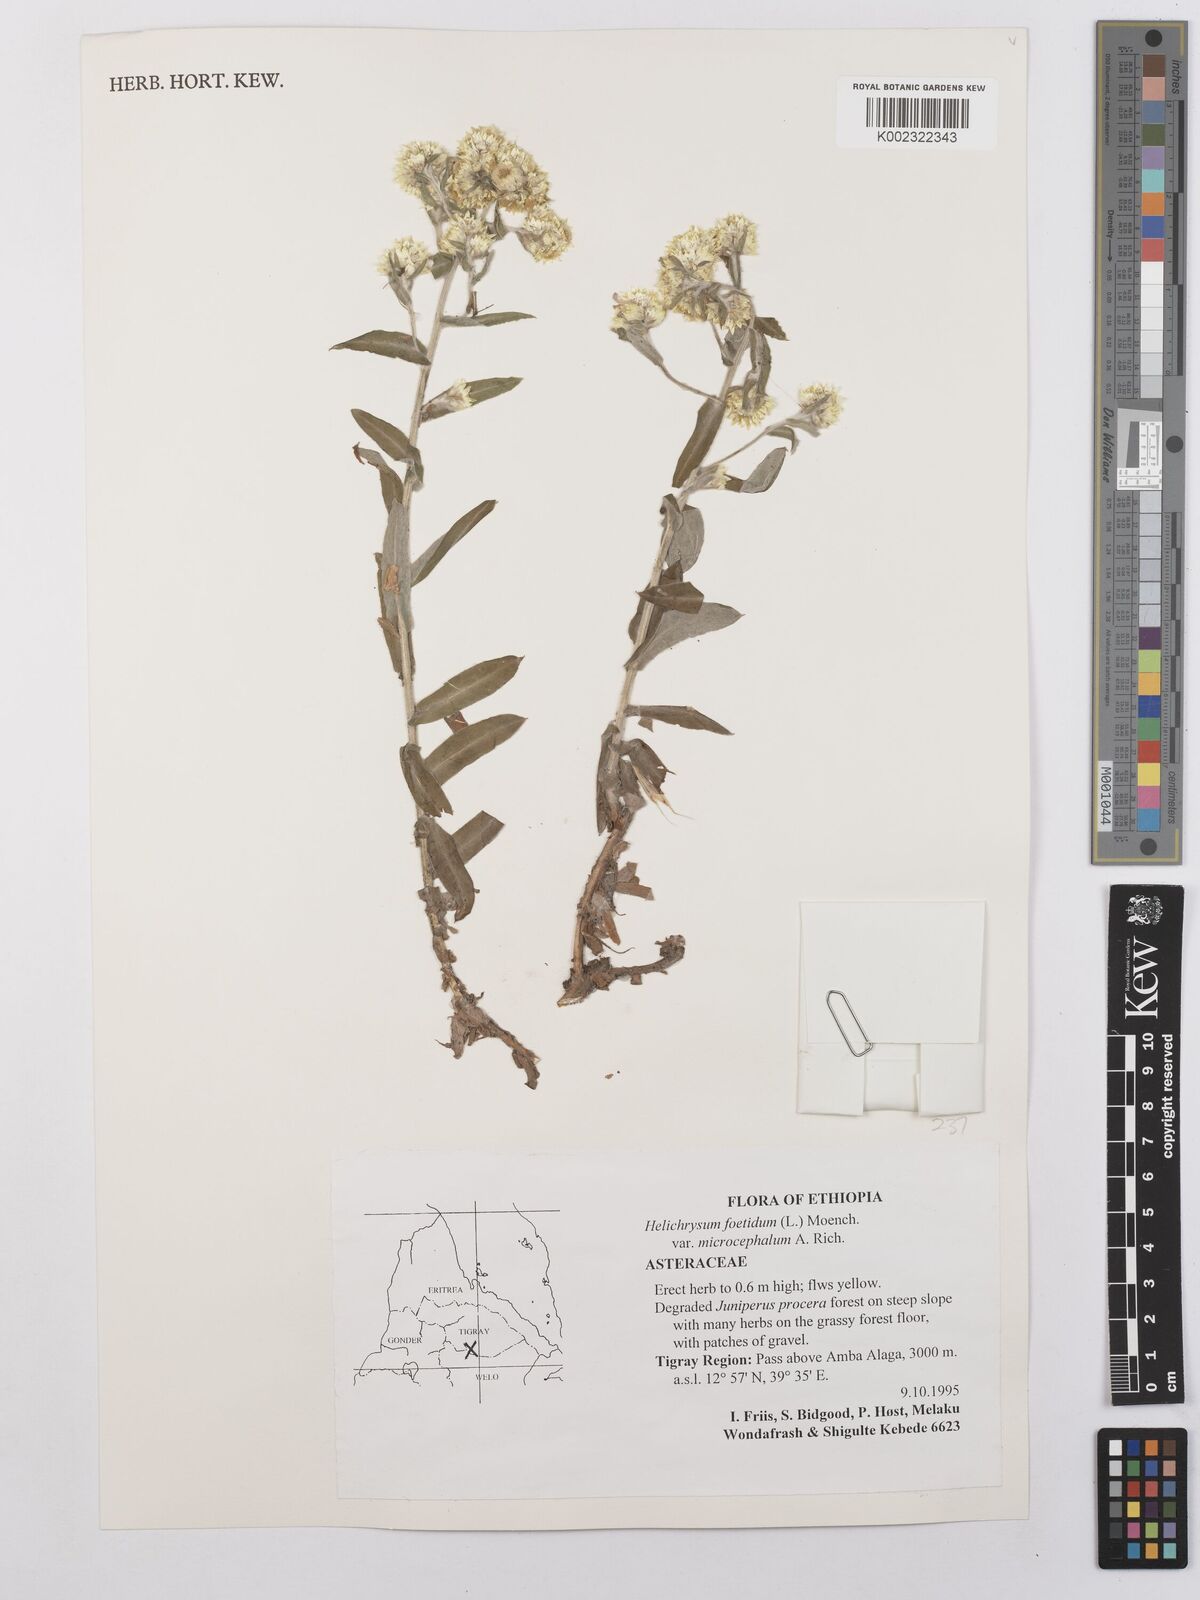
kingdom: Plantae
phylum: Tracheophyta
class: Magnoliopsida
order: Asterales
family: Asteraceae
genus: Helichrysum
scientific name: Helichrysum foetidum
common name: Stinking everlasting
